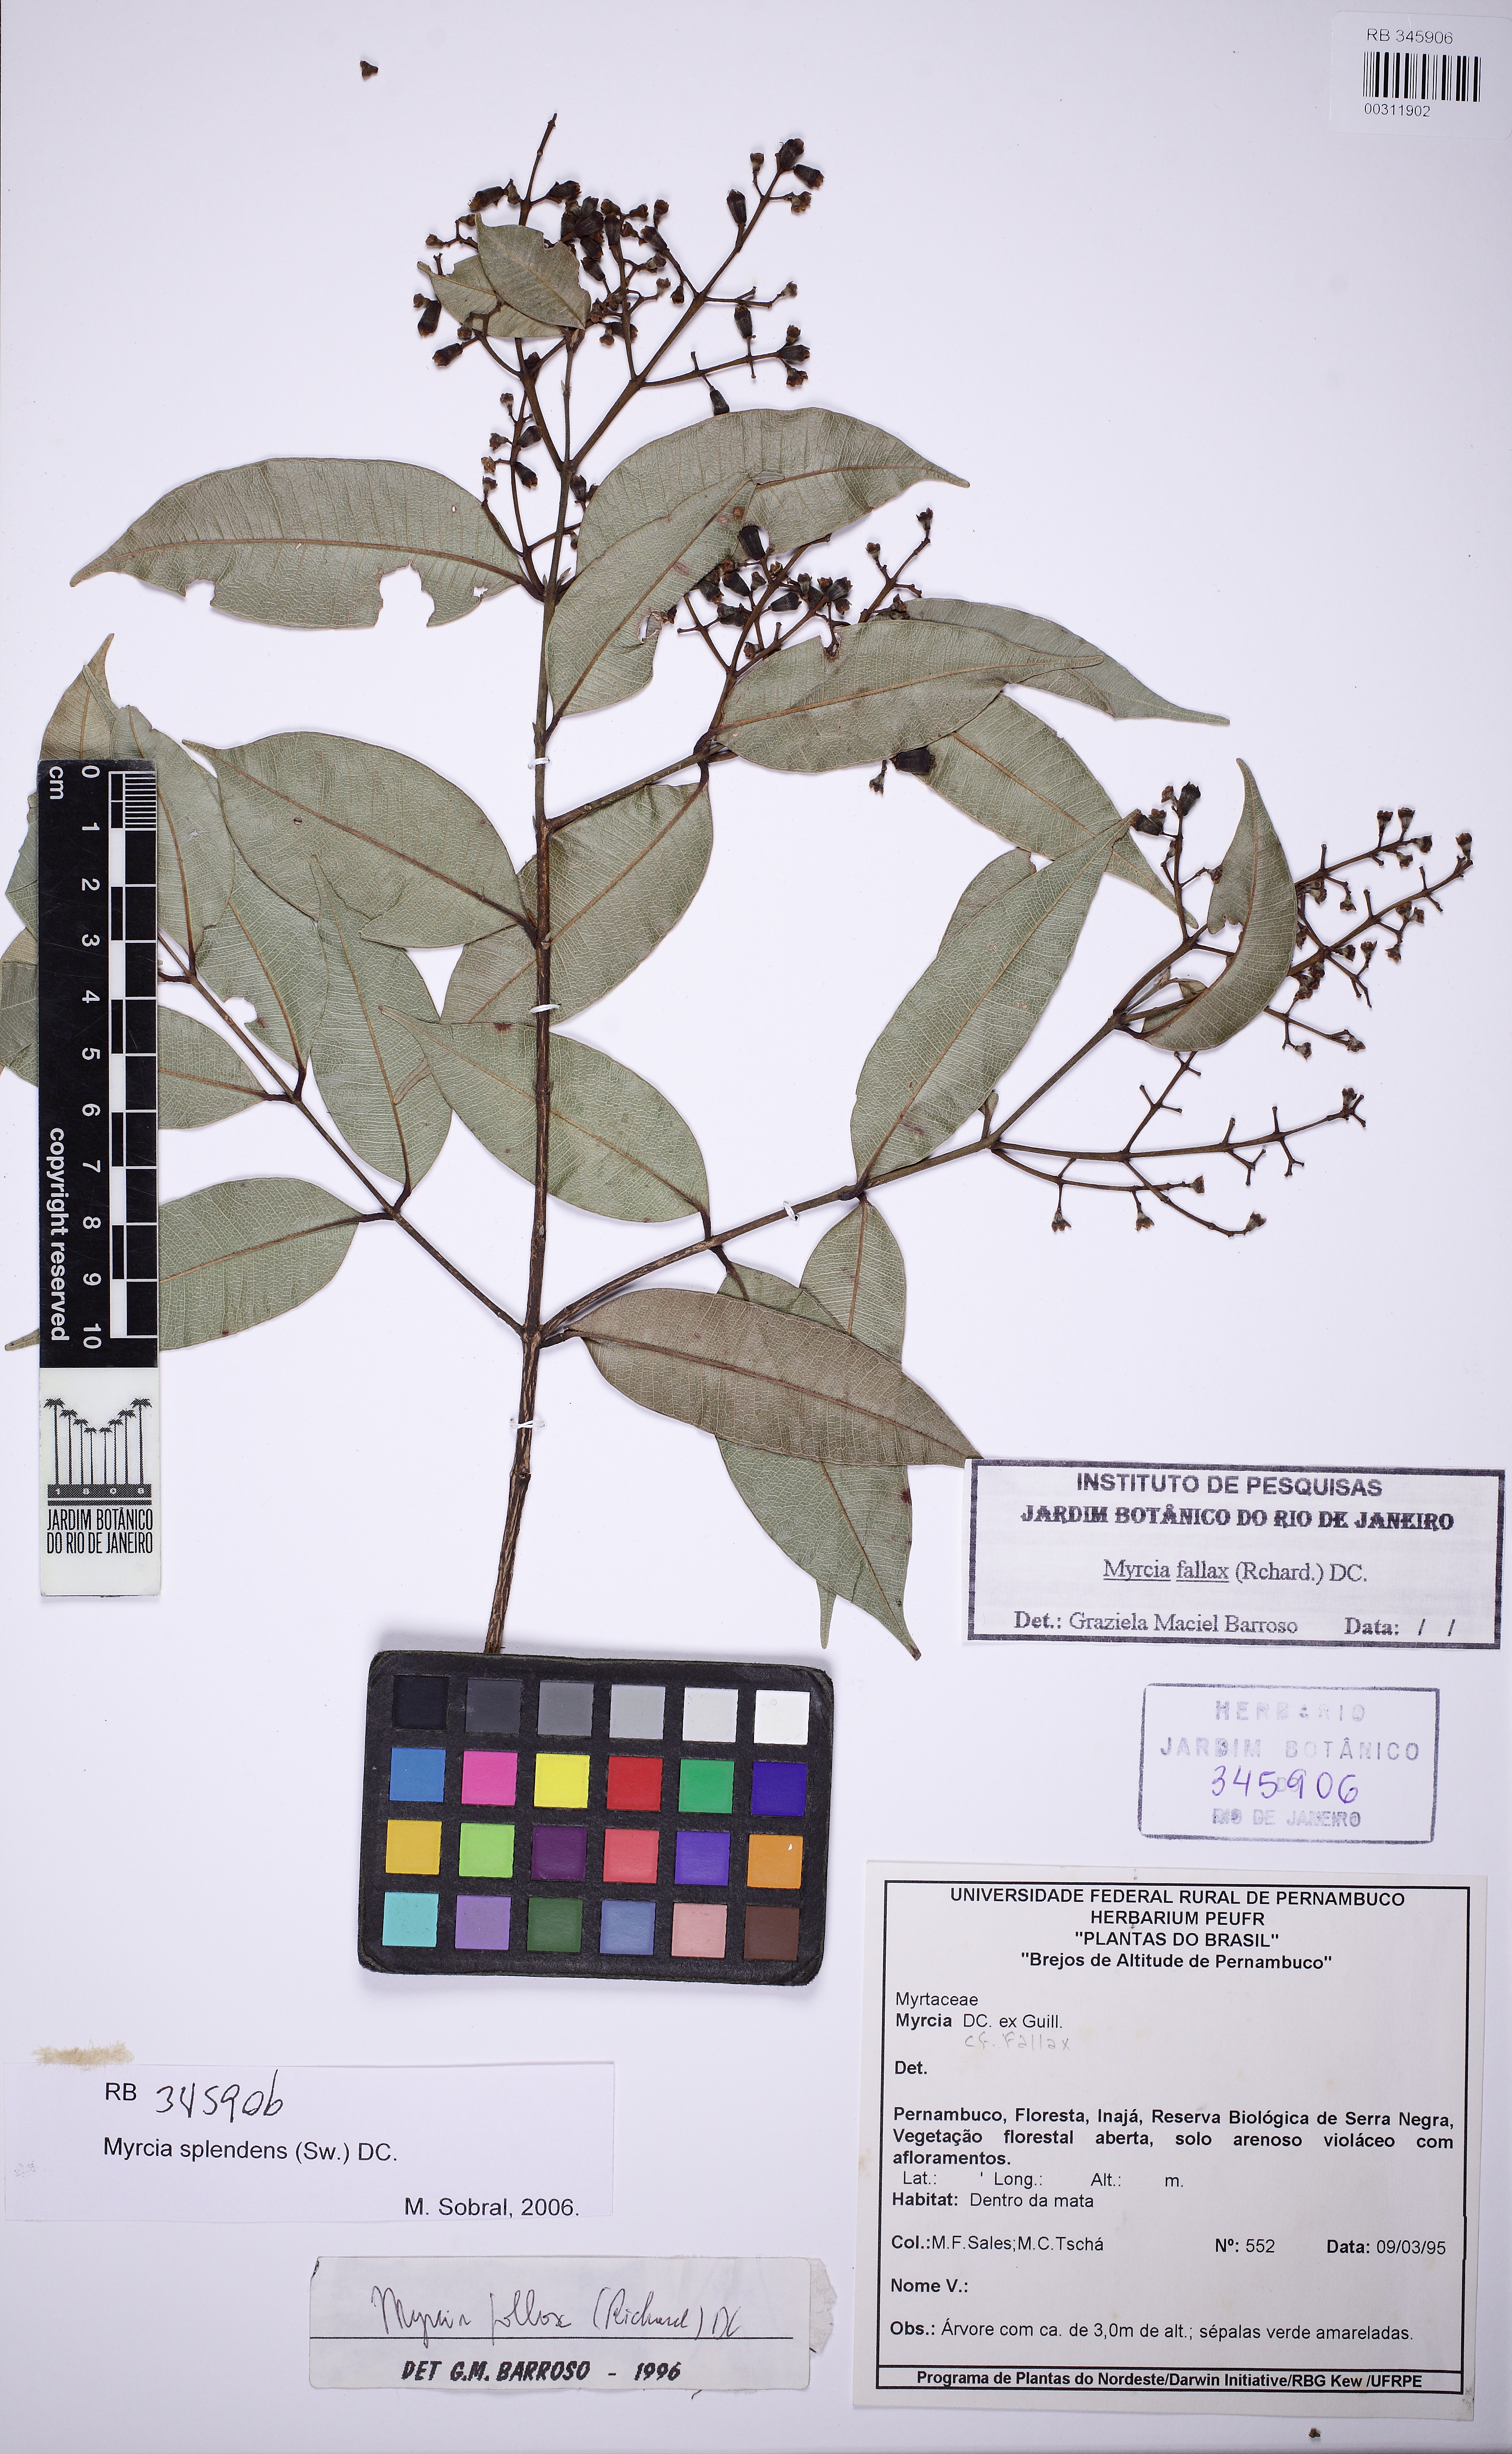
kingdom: Plantae
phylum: Tracheophyta
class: Magnoliopsida
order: Myrtales
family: Myrtaceae
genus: Myrcia
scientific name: Myrcia splendens
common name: Surinam cherry
